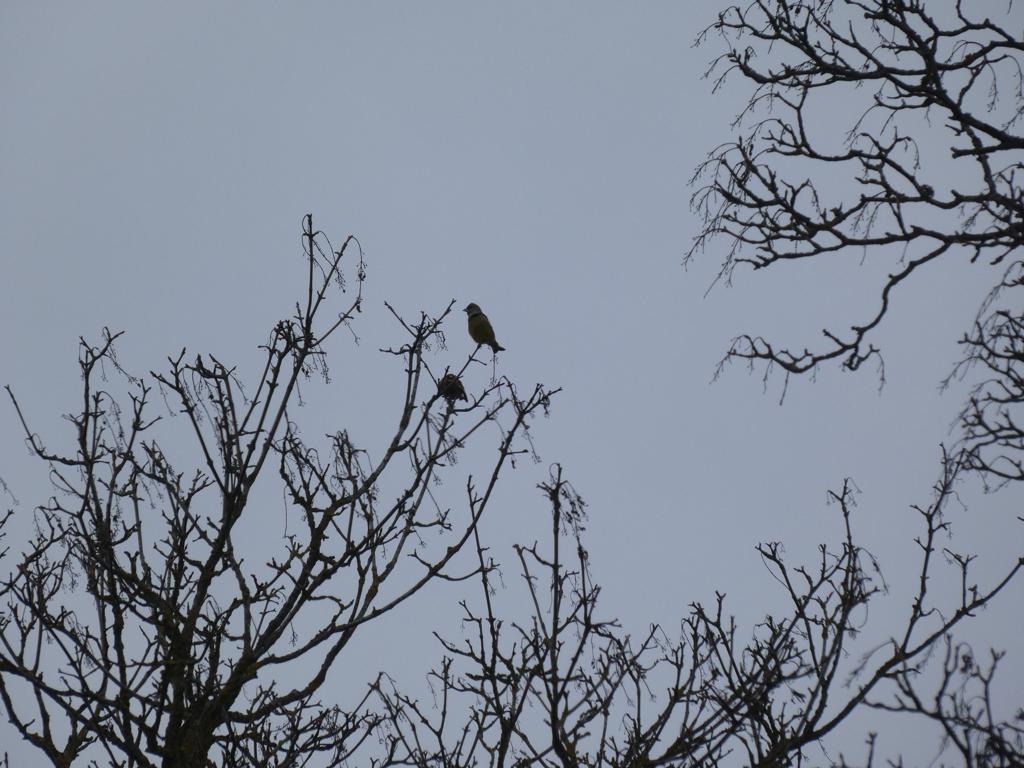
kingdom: Plantae
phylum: Tracheophyta
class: Liliopsida
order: Poales
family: Poaceae
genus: Chloris
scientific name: Chloris chloris
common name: Grønirisk
